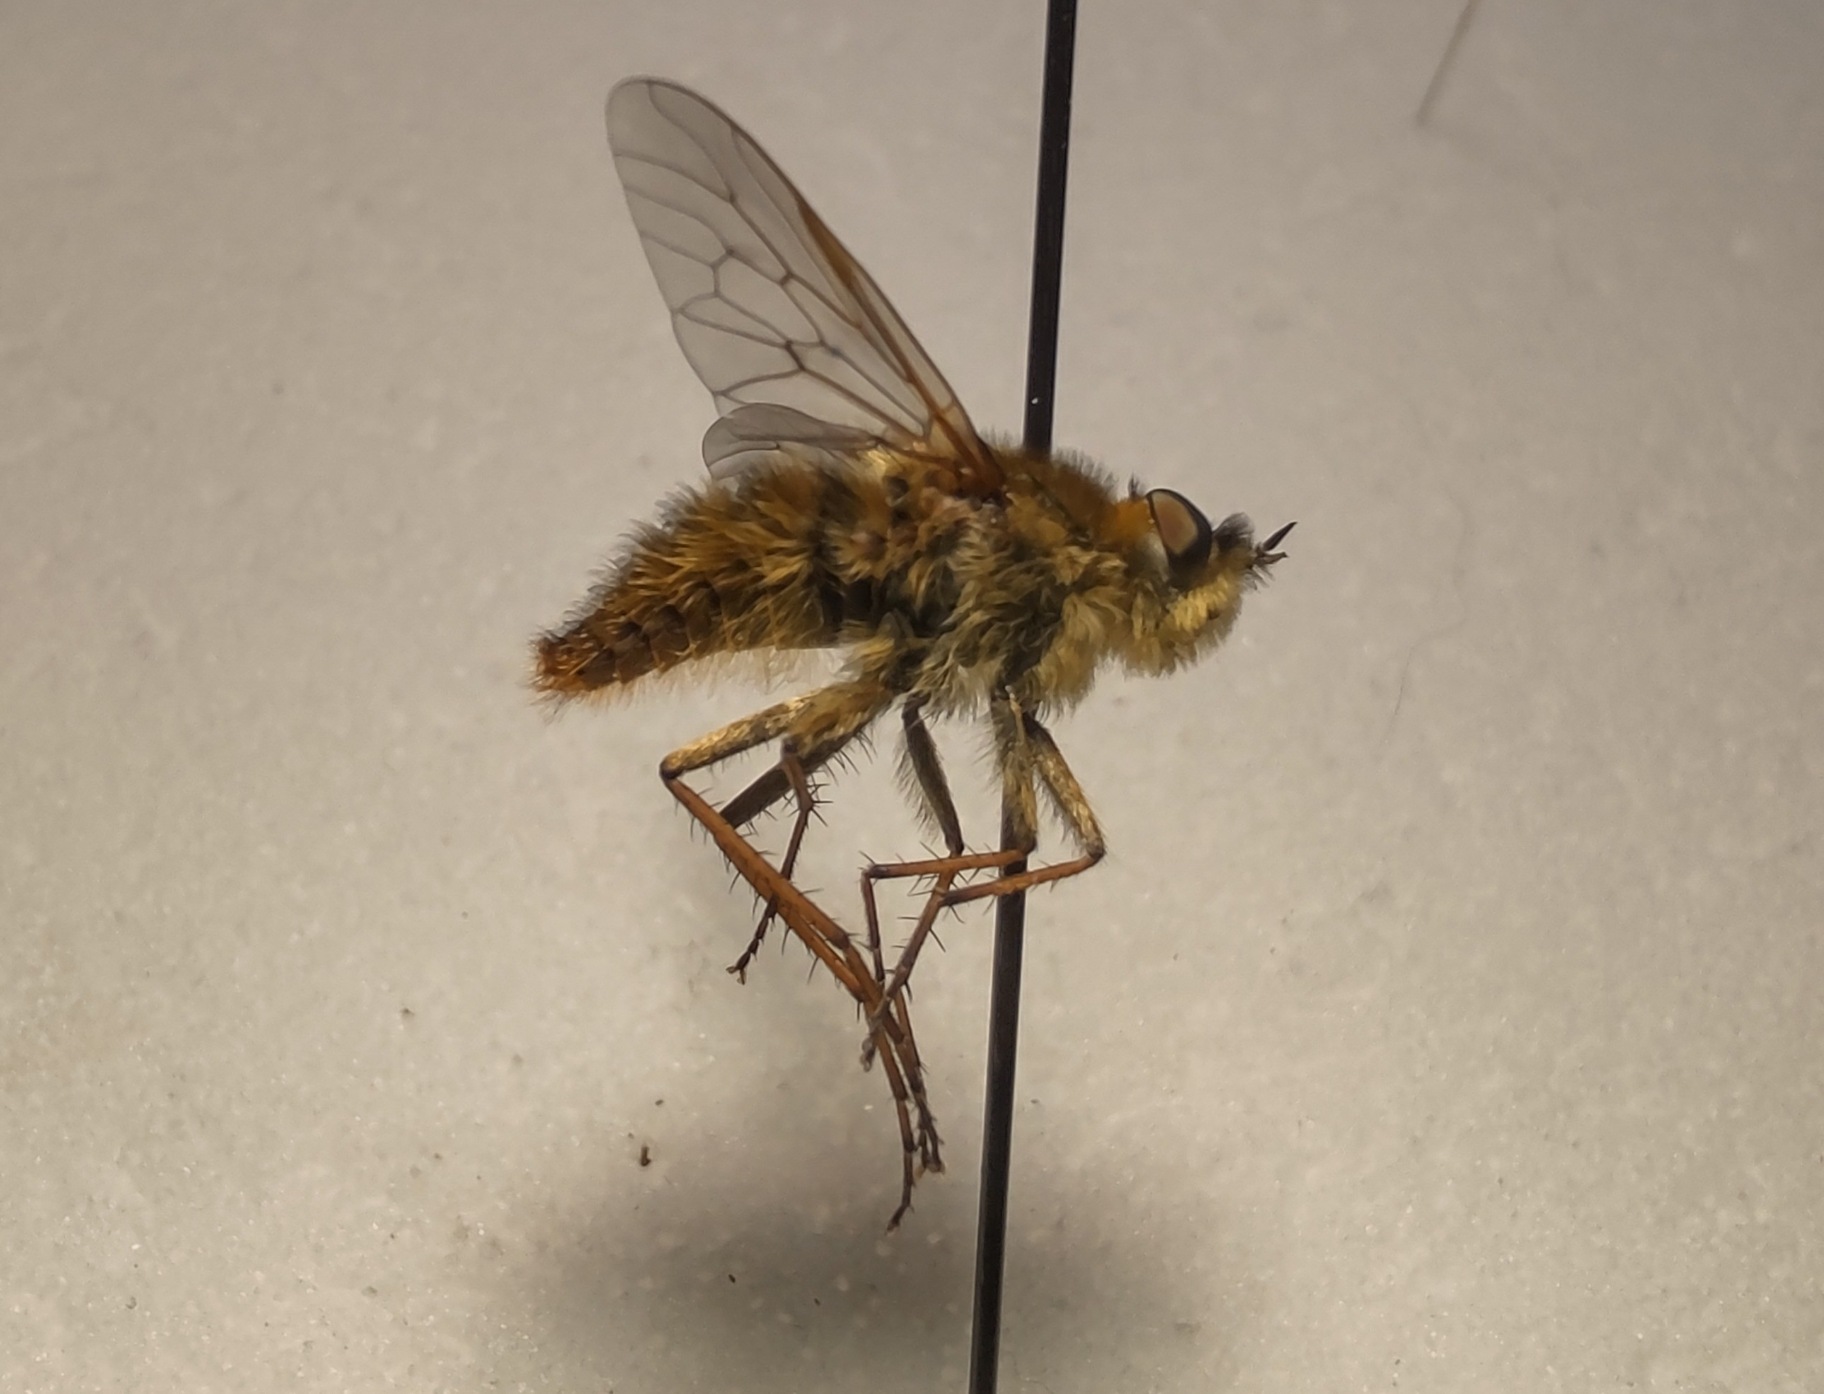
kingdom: Animalia
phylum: Arthropoda
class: Insecta
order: Diptera
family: Therevidae
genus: Thereva
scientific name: Thereva nobilitata
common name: Almindelig stiletflue
